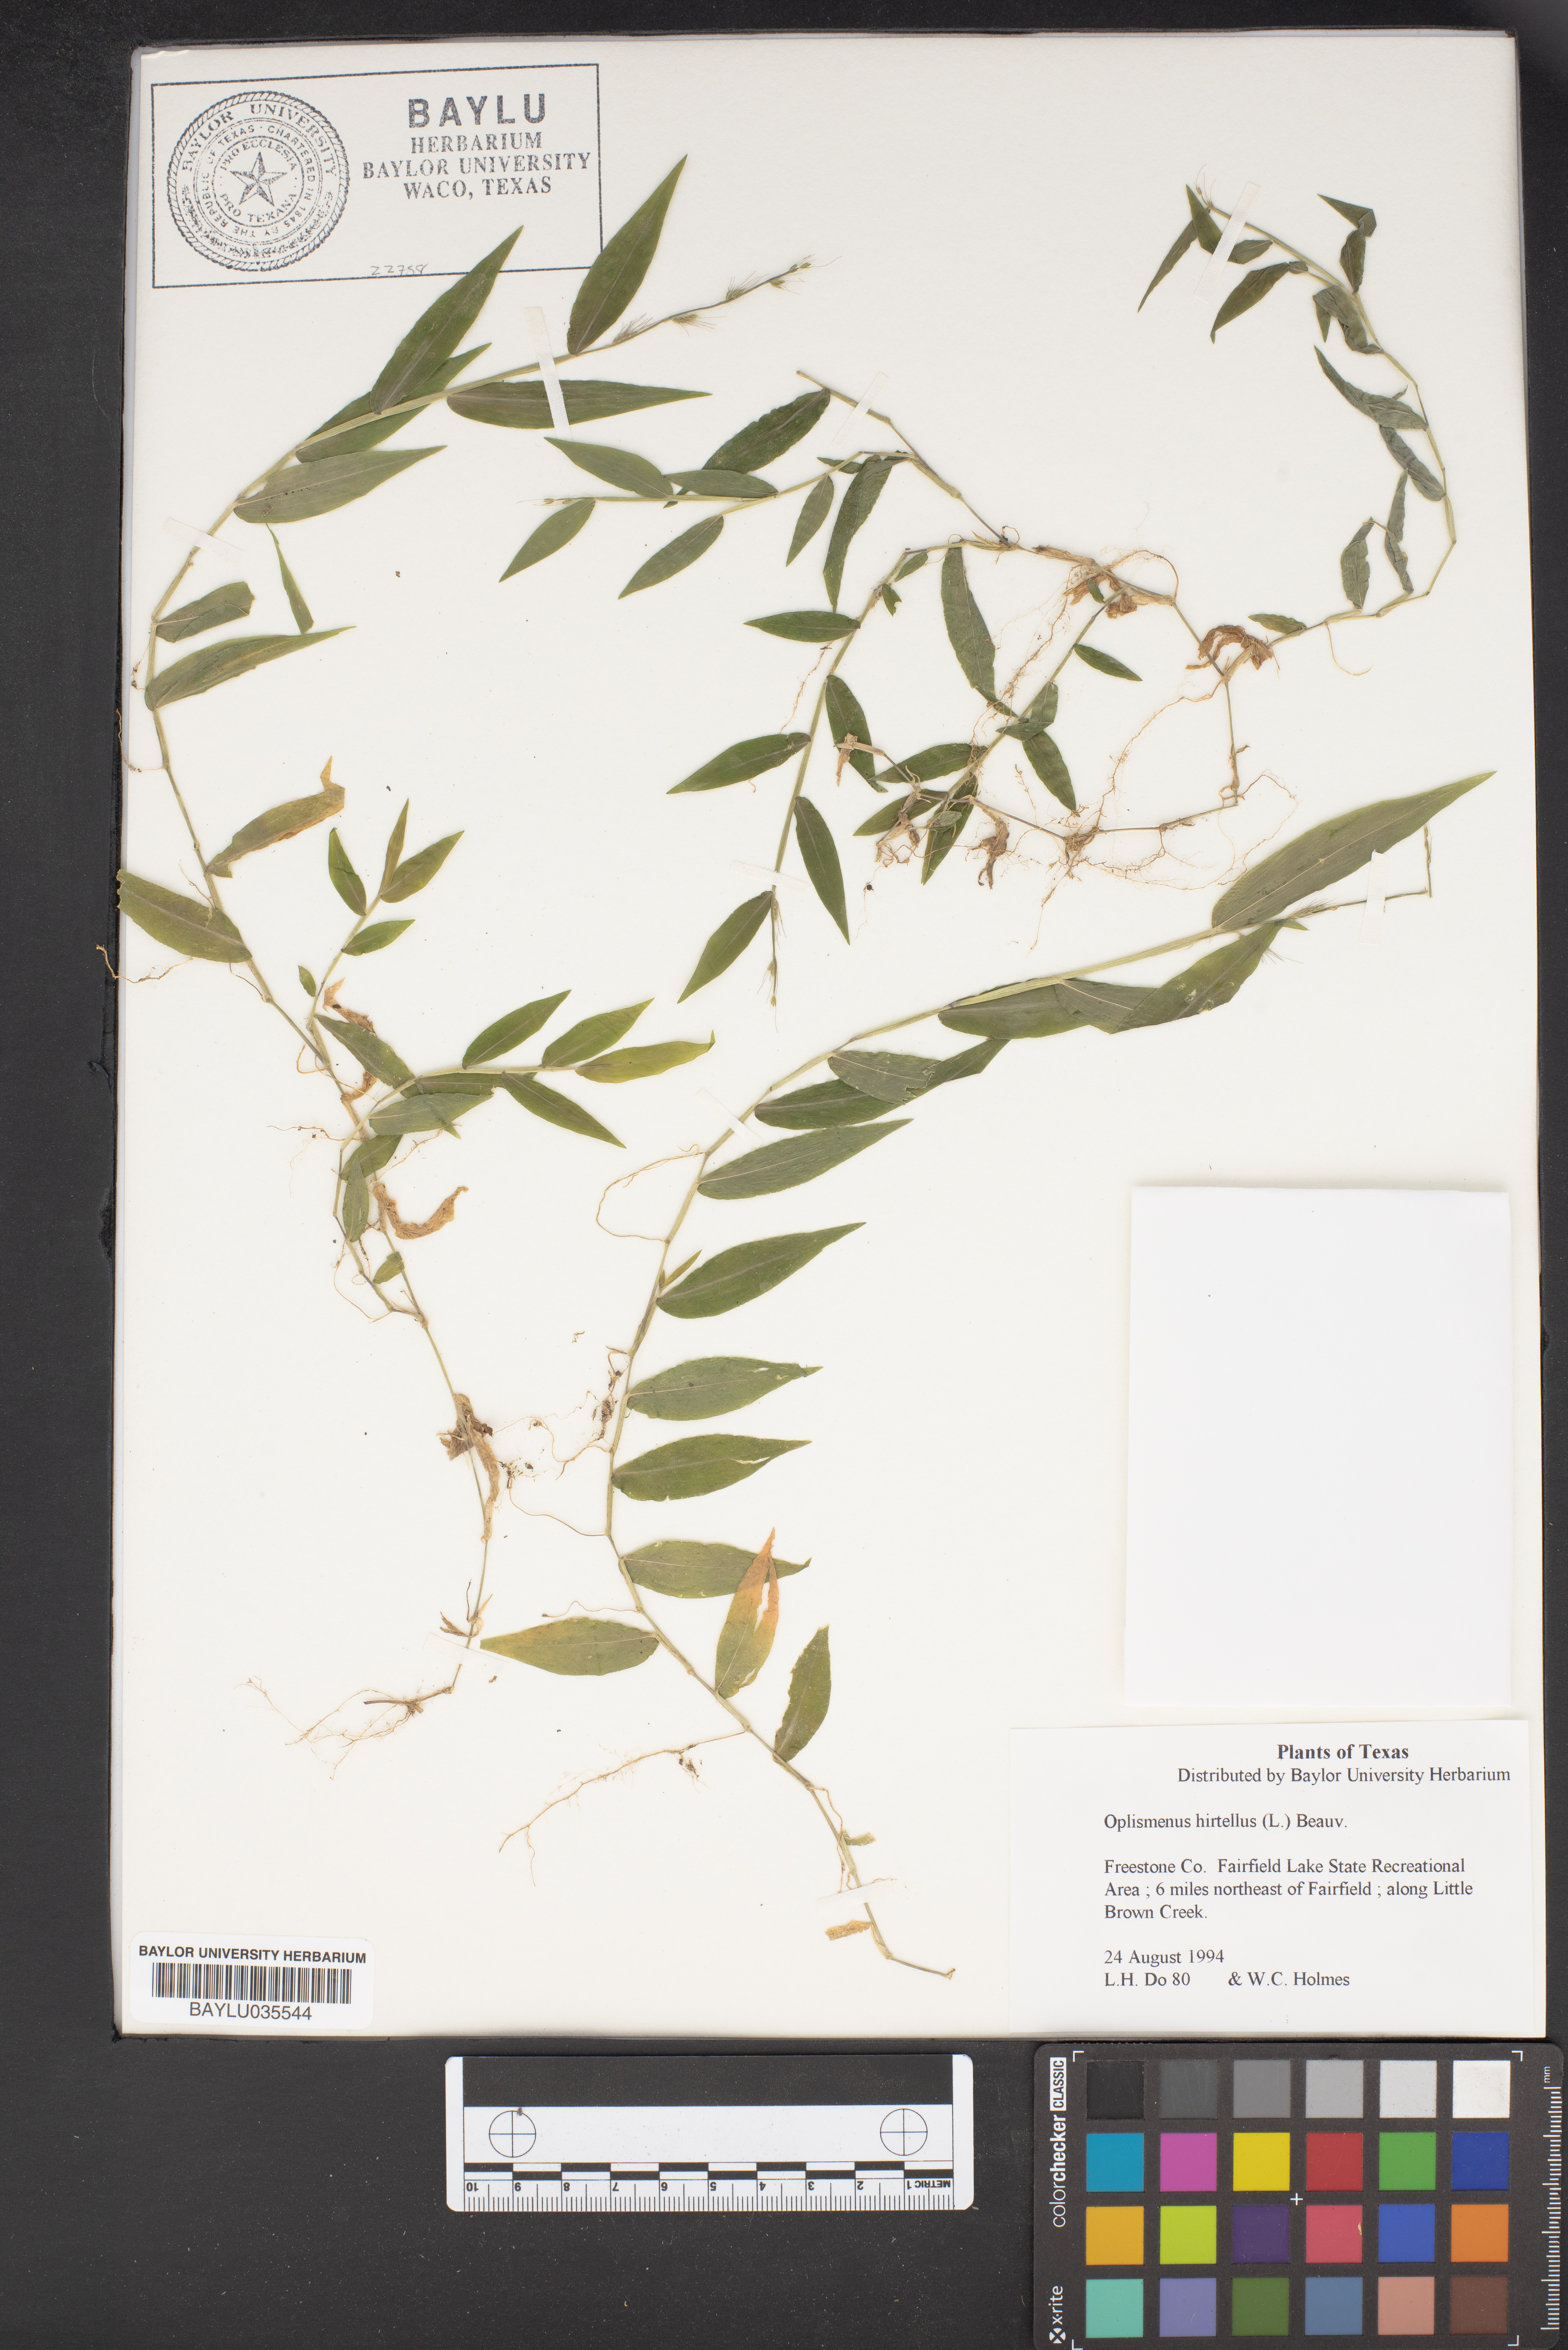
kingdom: Plantae
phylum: Tracheophyta
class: Liliopsida
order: Poales
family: Poaceae
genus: Oplismenus
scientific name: Oplismenus hirtellus
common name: Basketgrass
